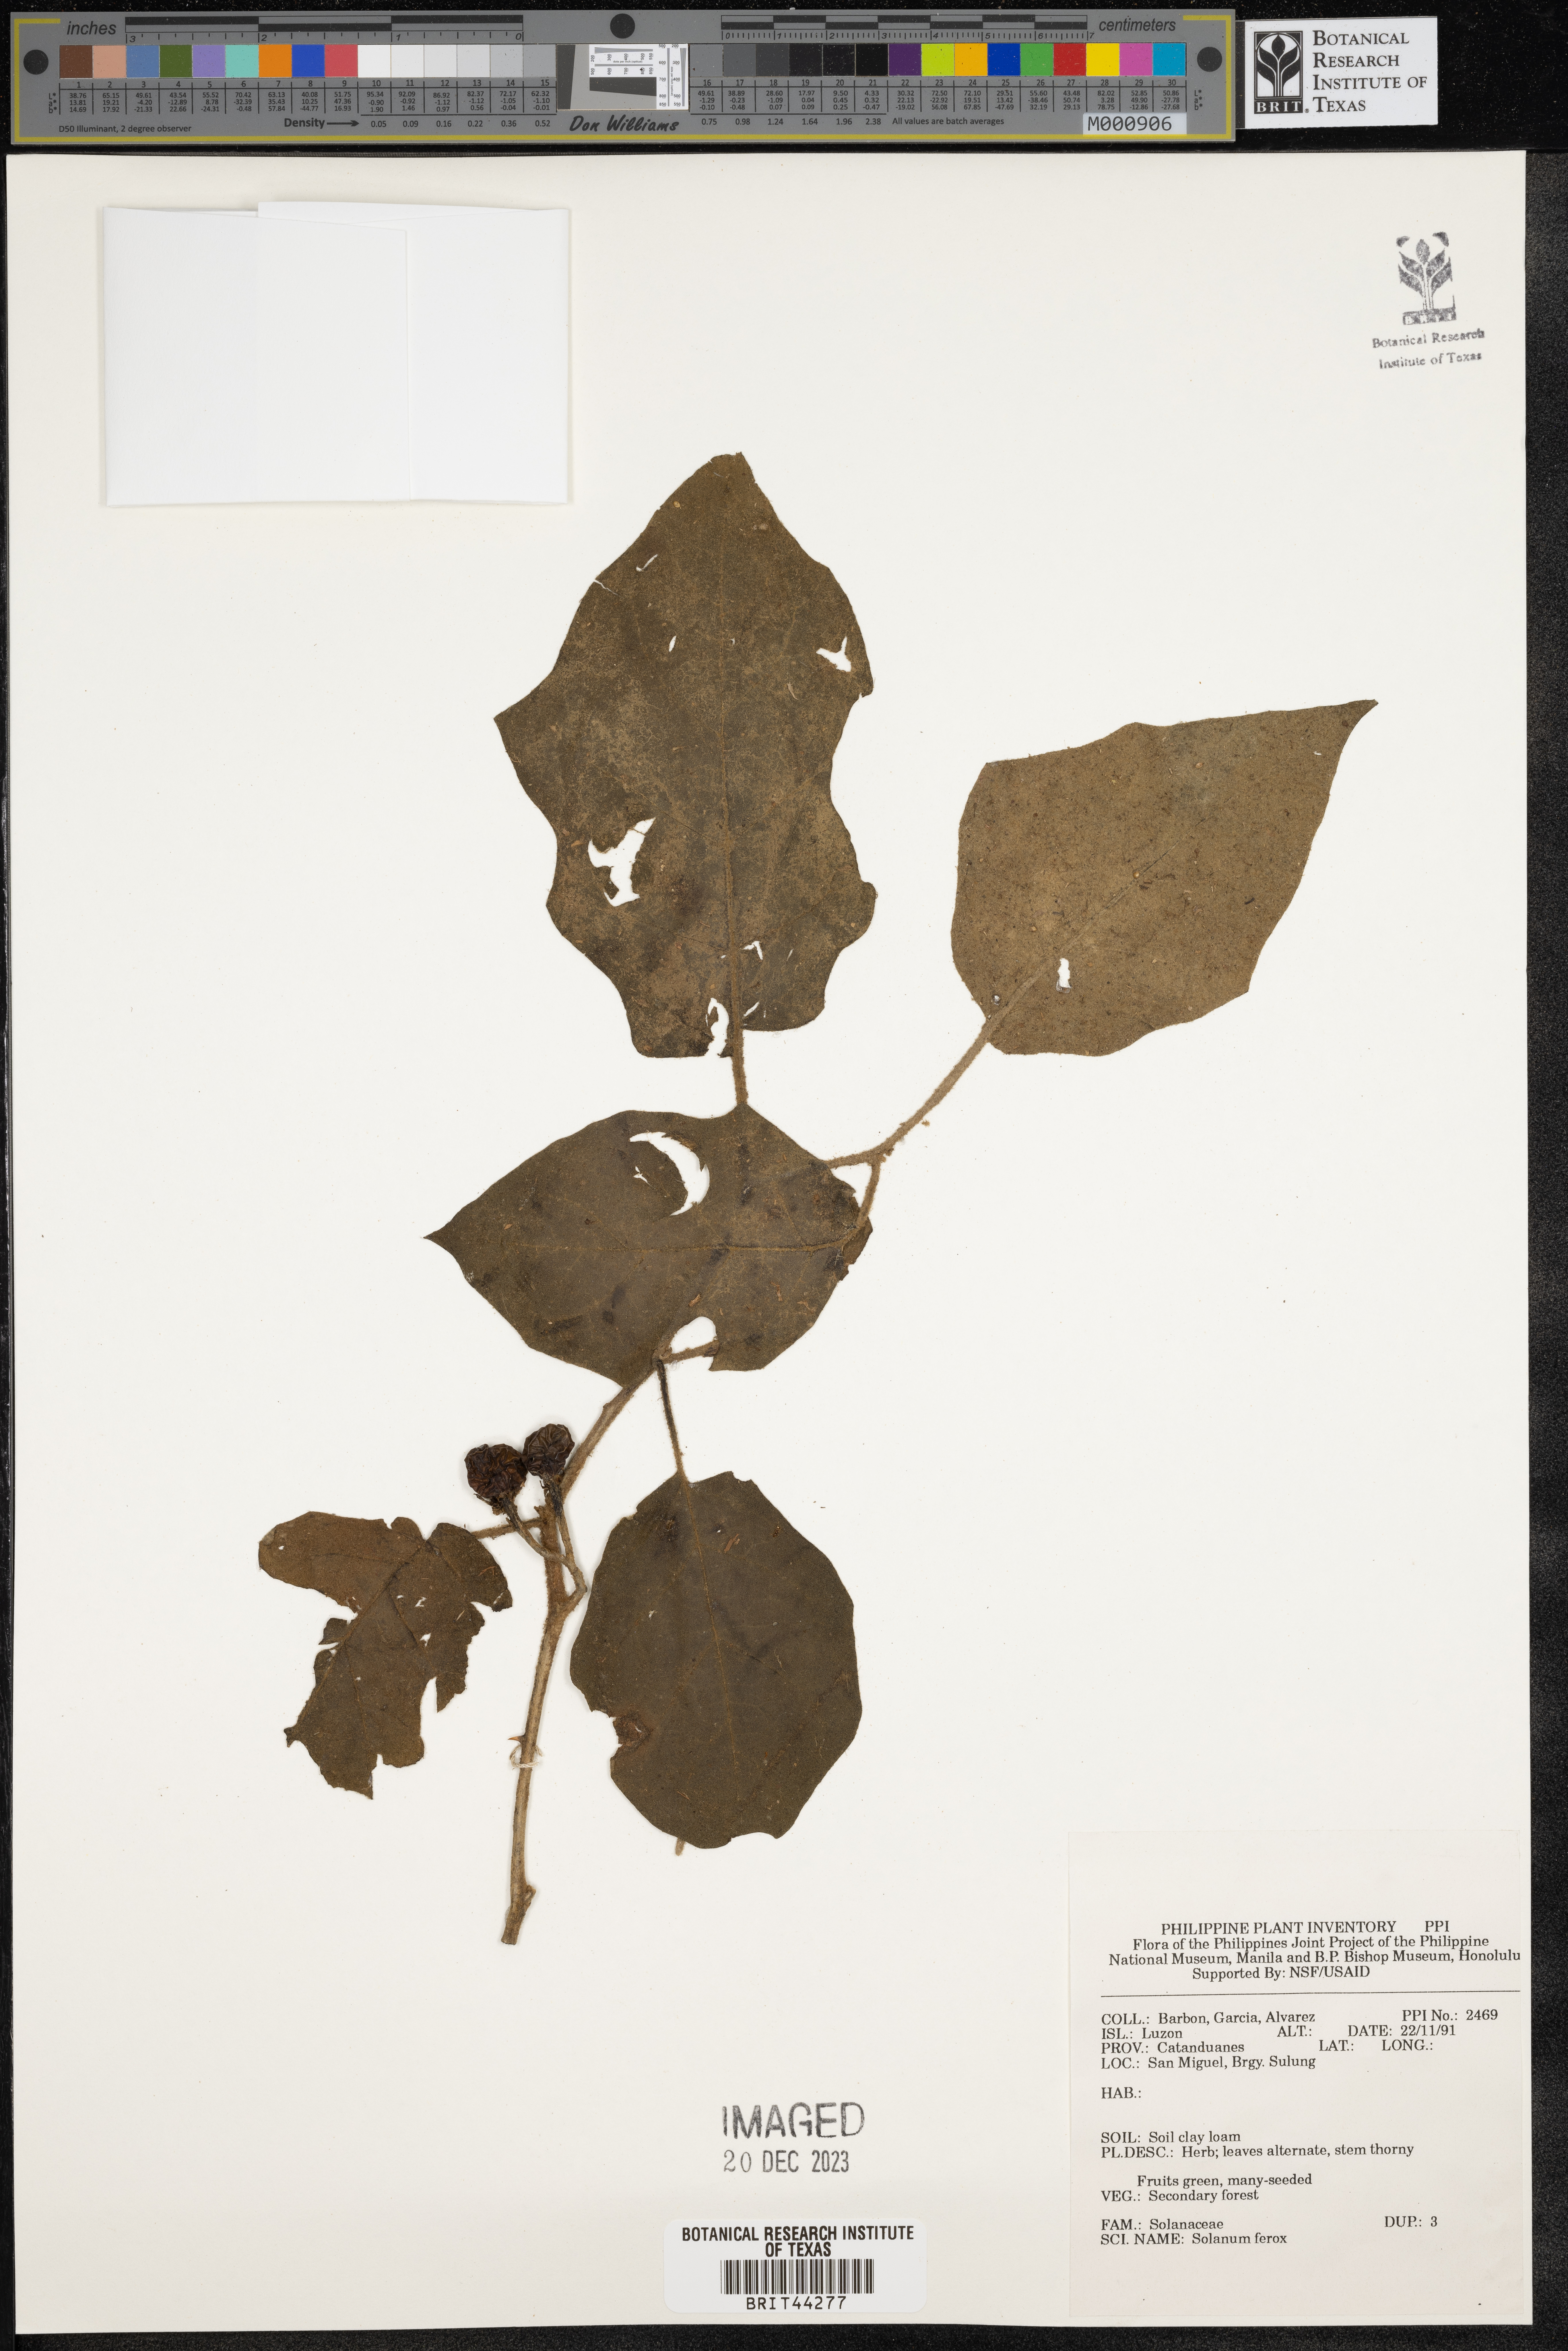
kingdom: Plantae
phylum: Tracheophyta
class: Magnoliopsida
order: Solanales
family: Solanaceae
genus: Solanum
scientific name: Solanum
